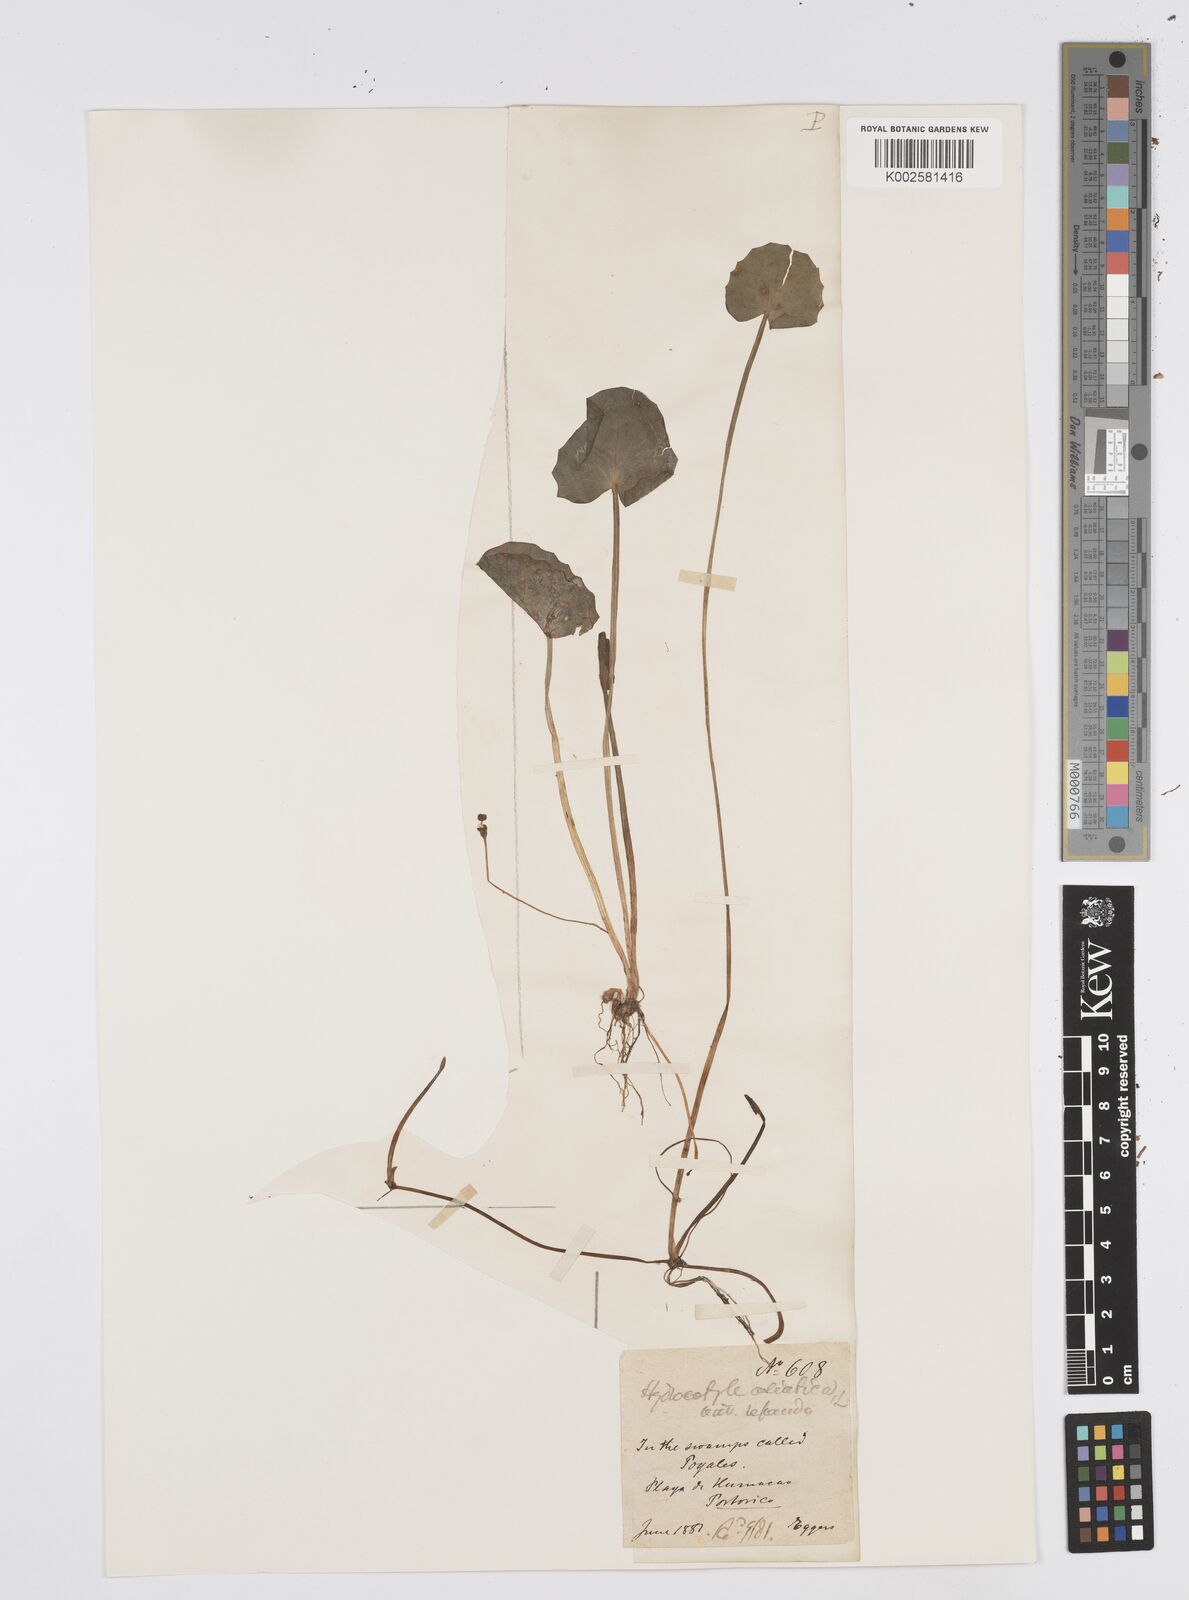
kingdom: Plantae
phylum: Tracheophyta
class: Magnoliopsida
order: Apiales
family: Apiaceae
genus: Centella
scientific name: Centella asiatica
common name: Spadeleaf
